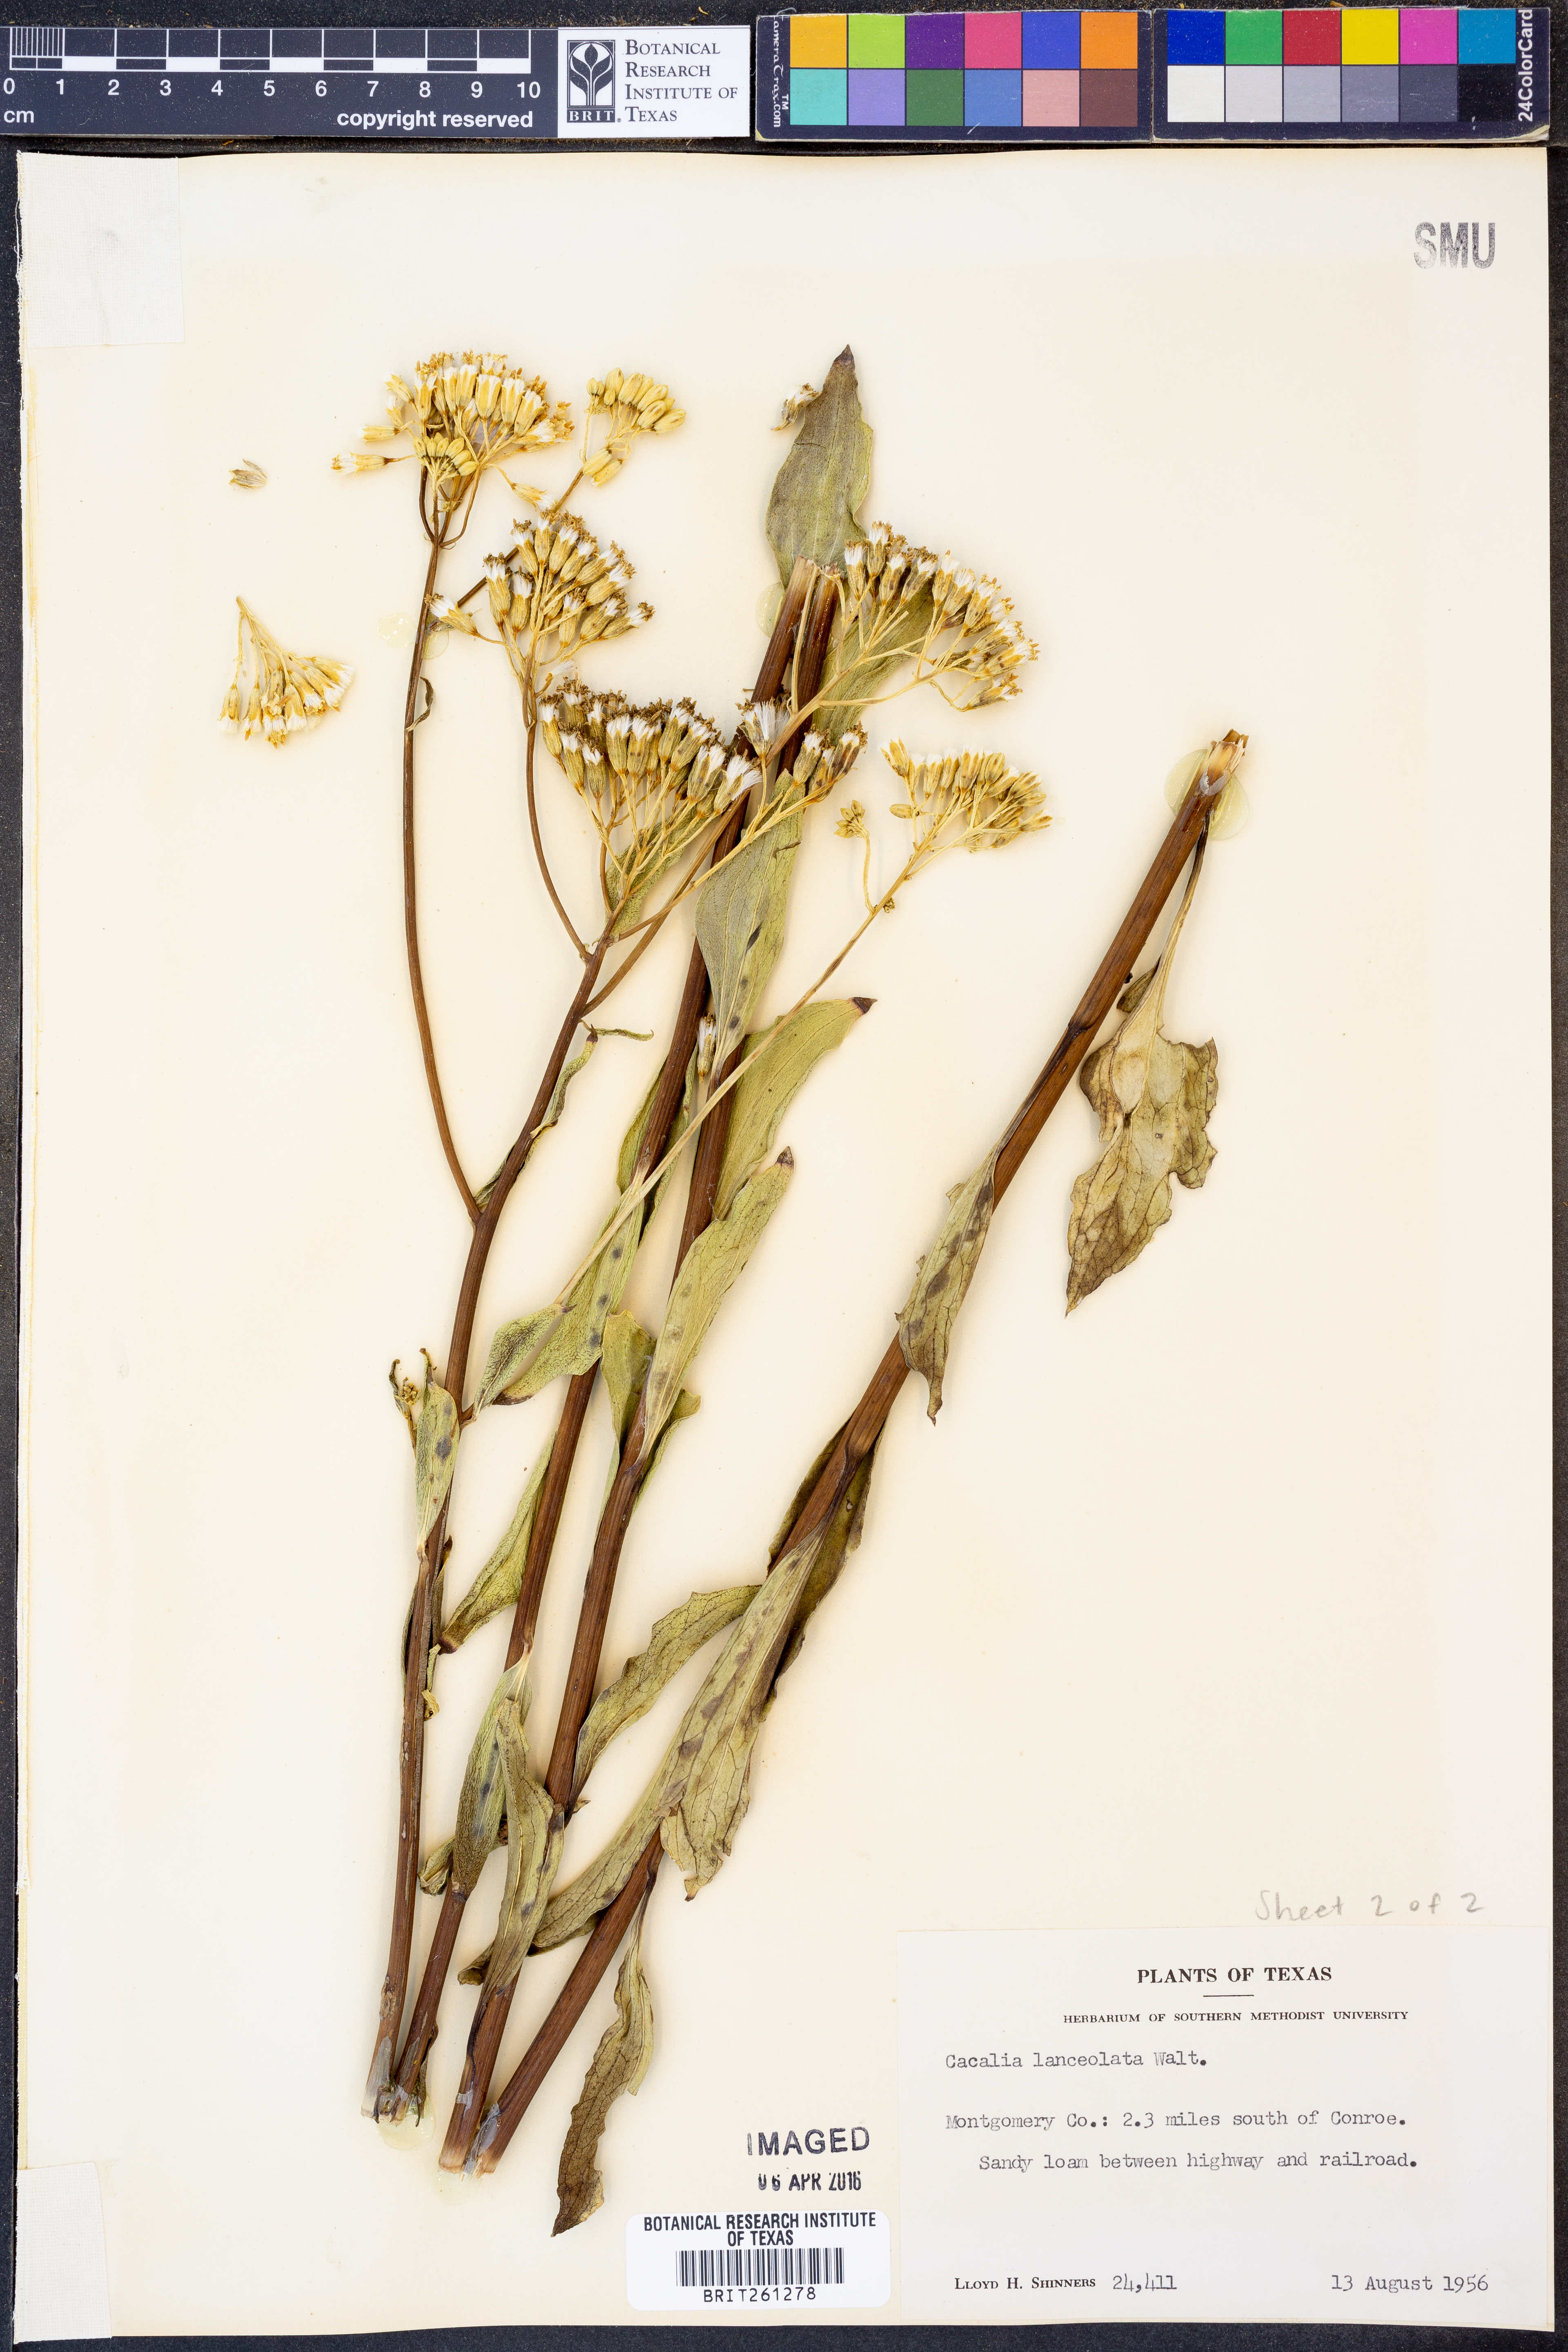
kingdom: Plantae
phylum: Tracheophyta
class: Magnoliopsida
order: Asterales
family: Asteraceae
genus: Arnoglossum
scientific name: Arnoglossum ovatum
